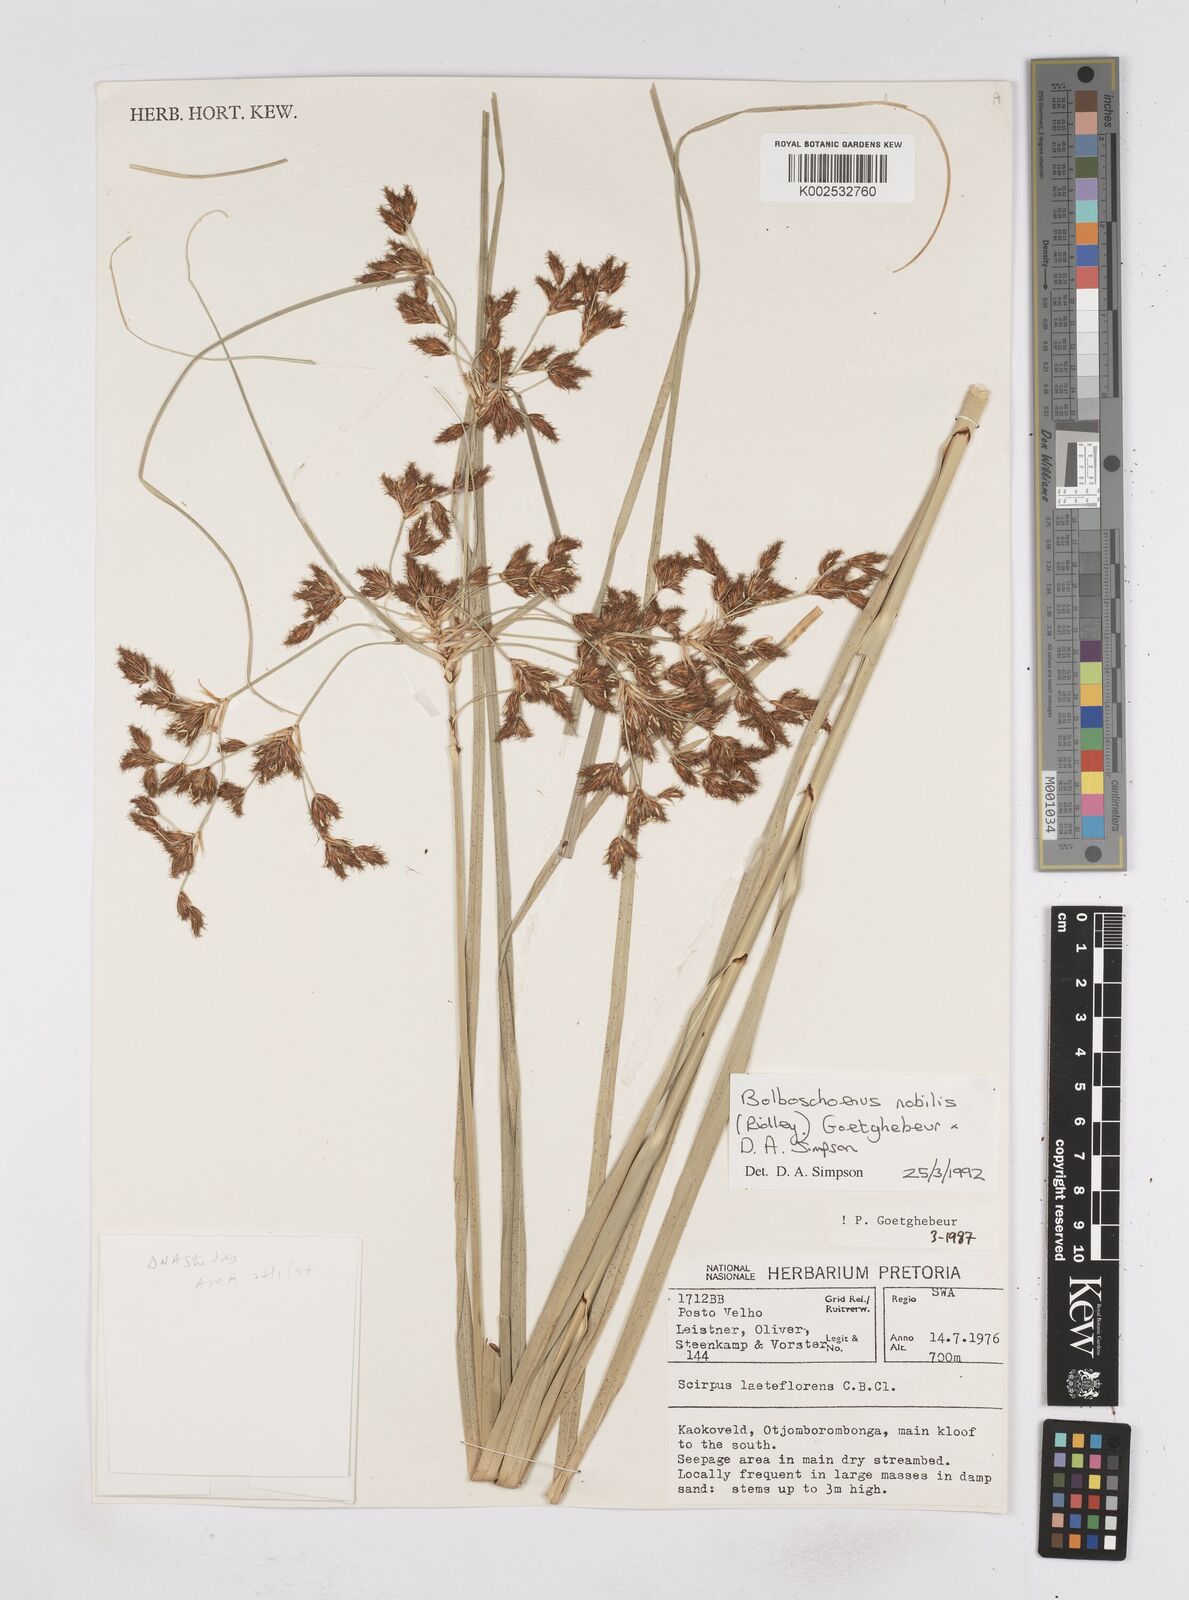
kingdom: Plantae
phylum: Tracheophyta
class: Liliopsida
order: Poales
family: Cyperaceae
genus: Bolboschoenus
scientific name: Bolboschoenus nobilis
